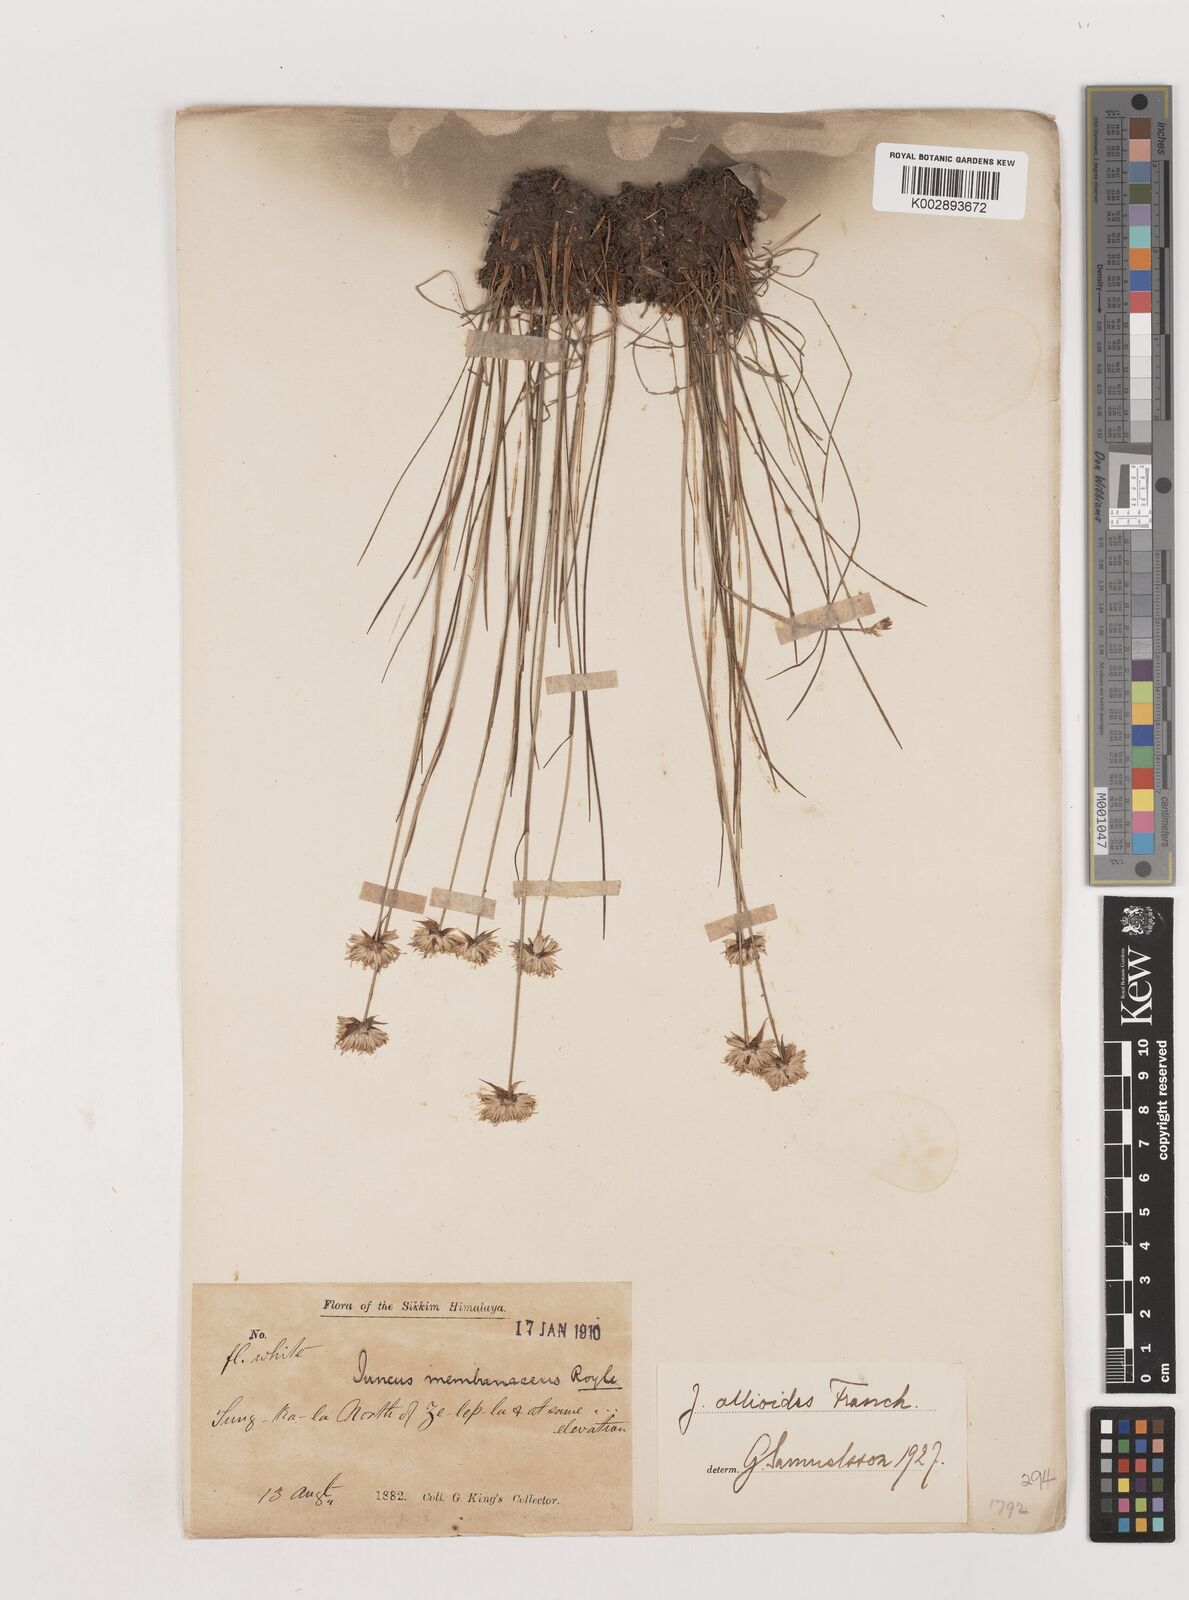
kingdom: Plantae
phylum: Tracheophyta
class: Liliopsida
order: Poales
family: Juncaceae
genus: Juncus
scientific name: Juncus allioides
